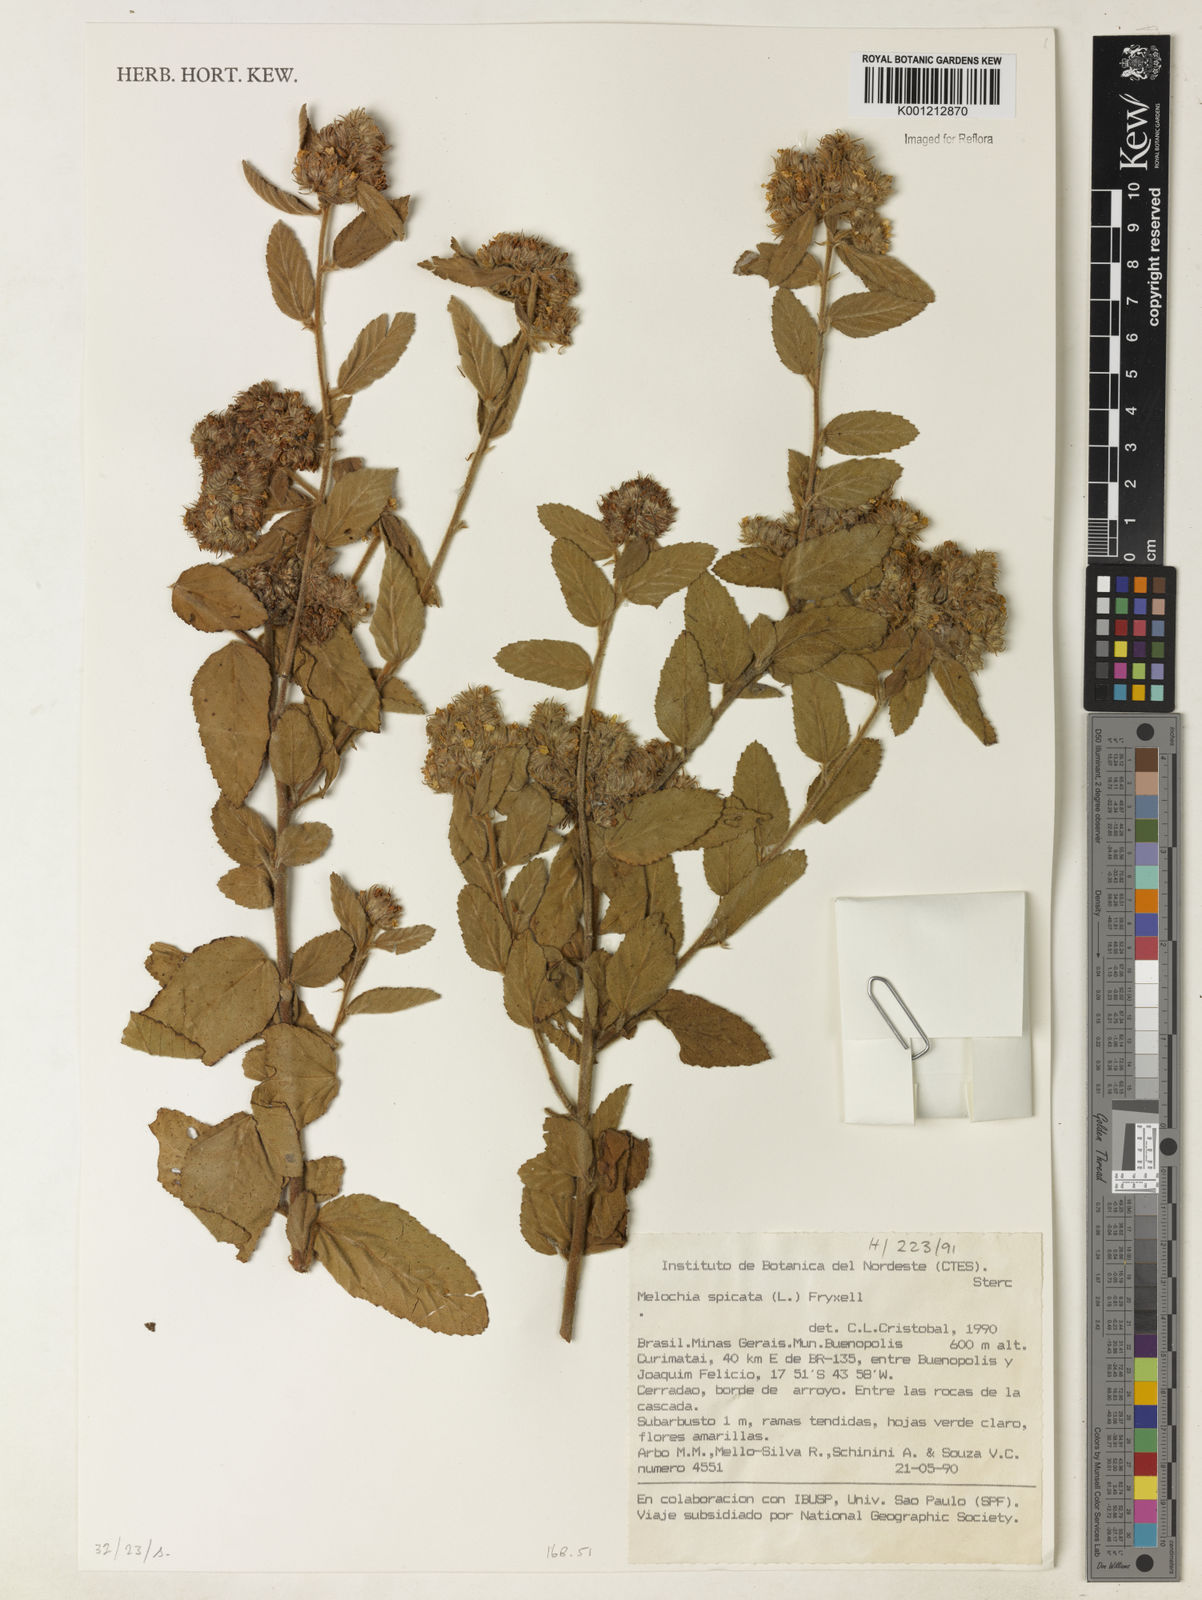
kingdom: Plantae
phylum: Tracheophyta
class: Magnoliopsida
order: Malvales
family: Malvaceae
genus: Melochia
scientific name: Melochia spicata
